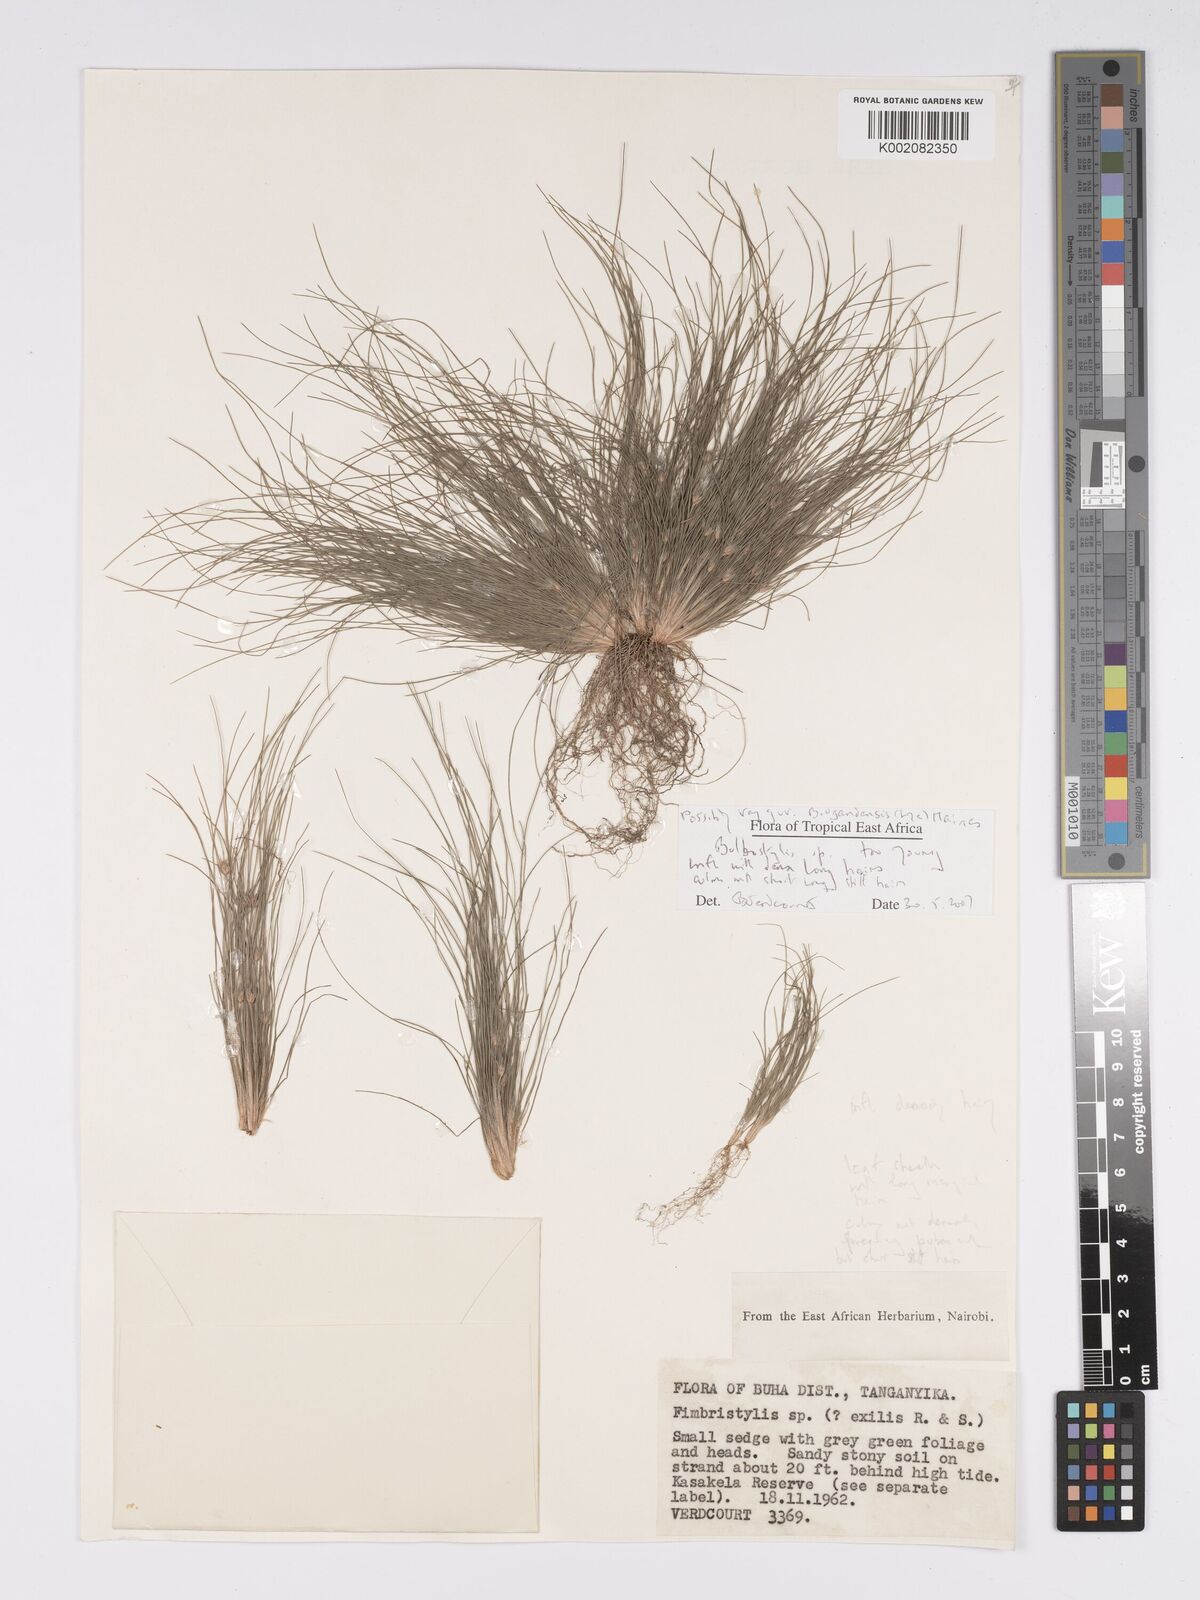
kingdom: Plantae
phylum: Tracheophyta
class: Liliopsida
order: Poales
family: Cyperaceae
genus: Bulbostylis
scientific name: Bulbostylis ugandensis
